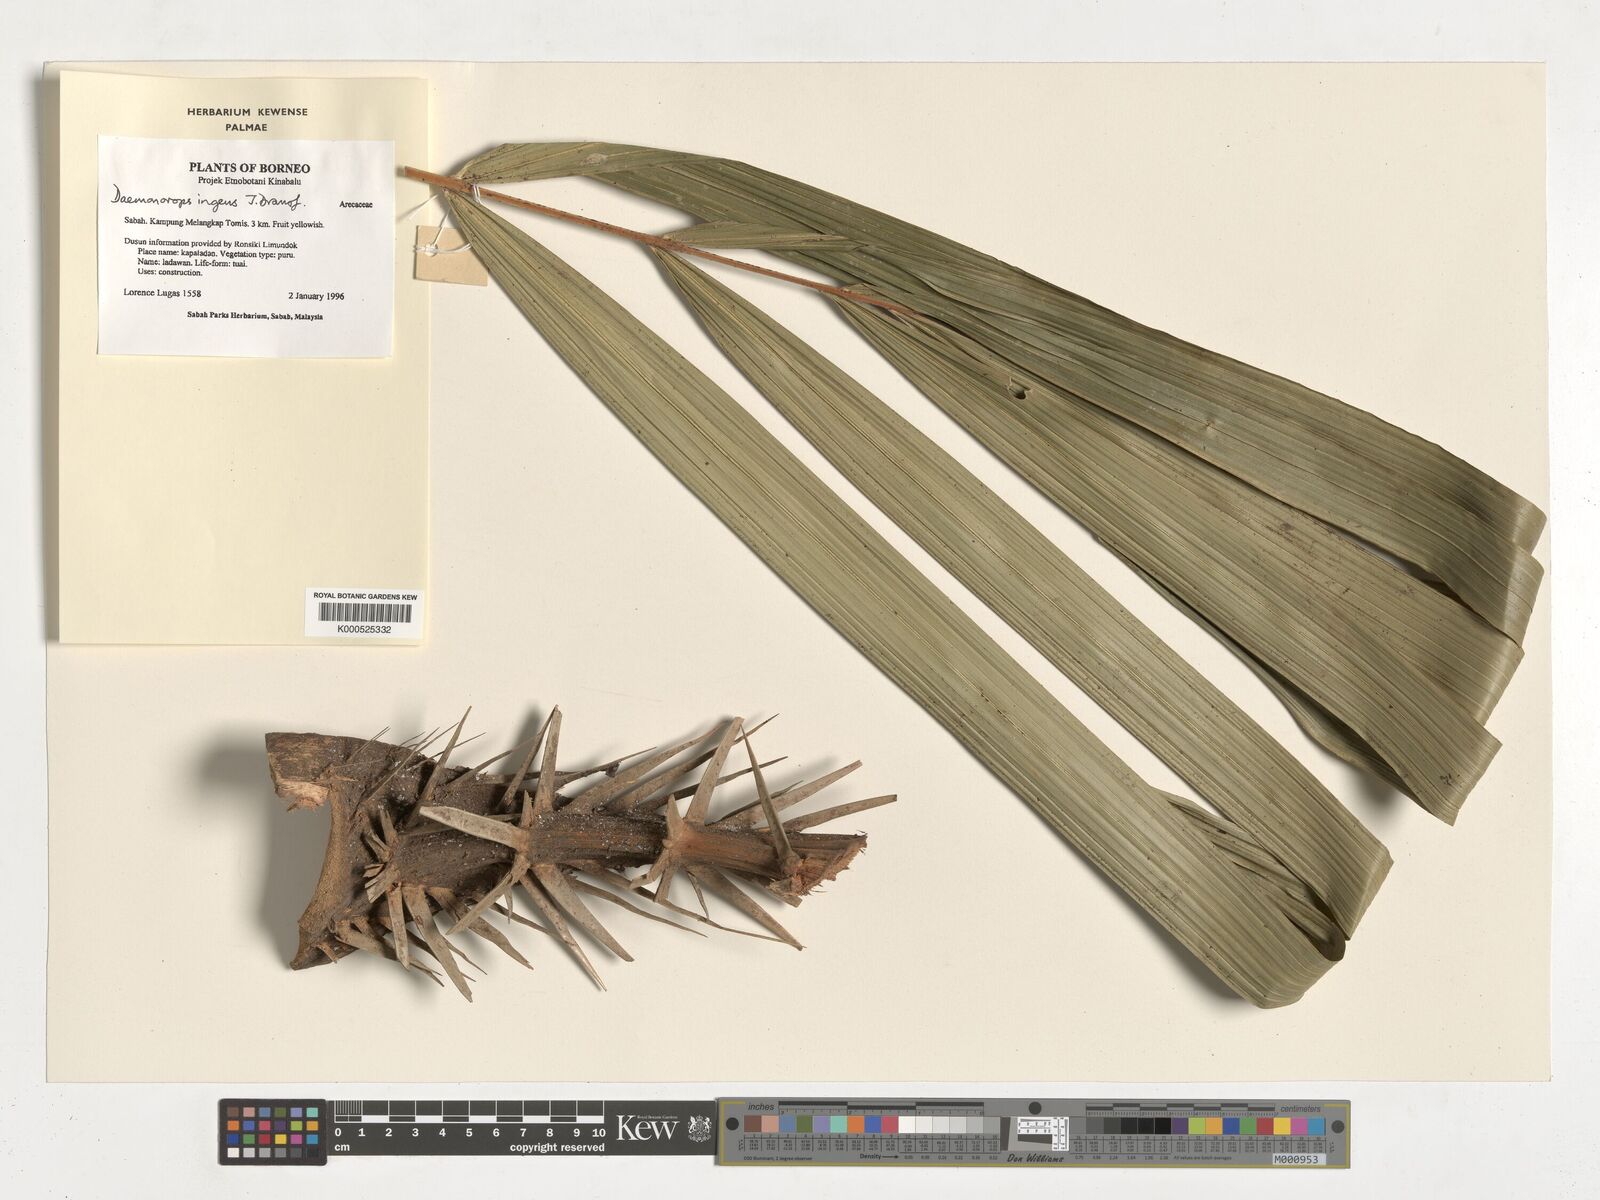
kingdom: Plantae
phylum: Tracheophyta
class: Liliopsida
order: Arecales
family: Arecaceae
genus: Calamus
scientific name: Calamus ingens
